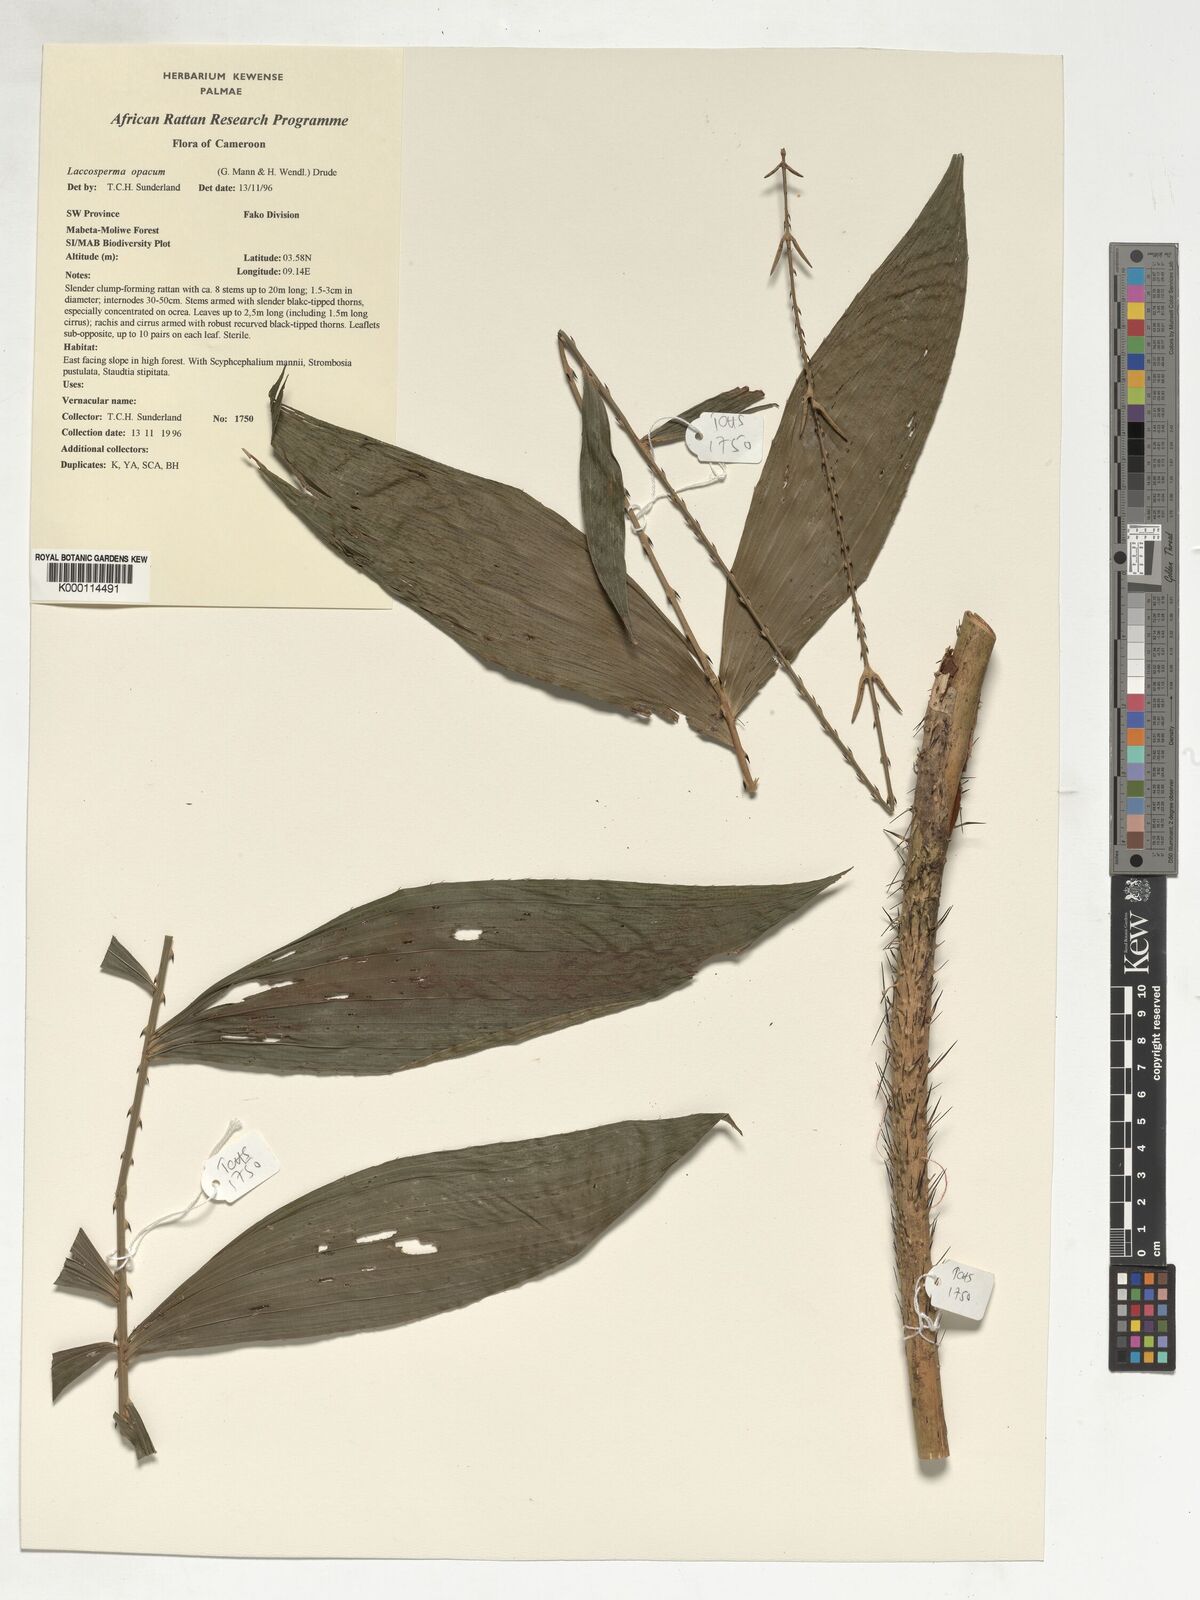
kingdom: Plantae
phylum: Tracheophyta
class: Liliopsida
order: Arecales
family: Arecaceae
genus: Laccosperma
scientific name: Laccosperma opacum
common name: Rattan
